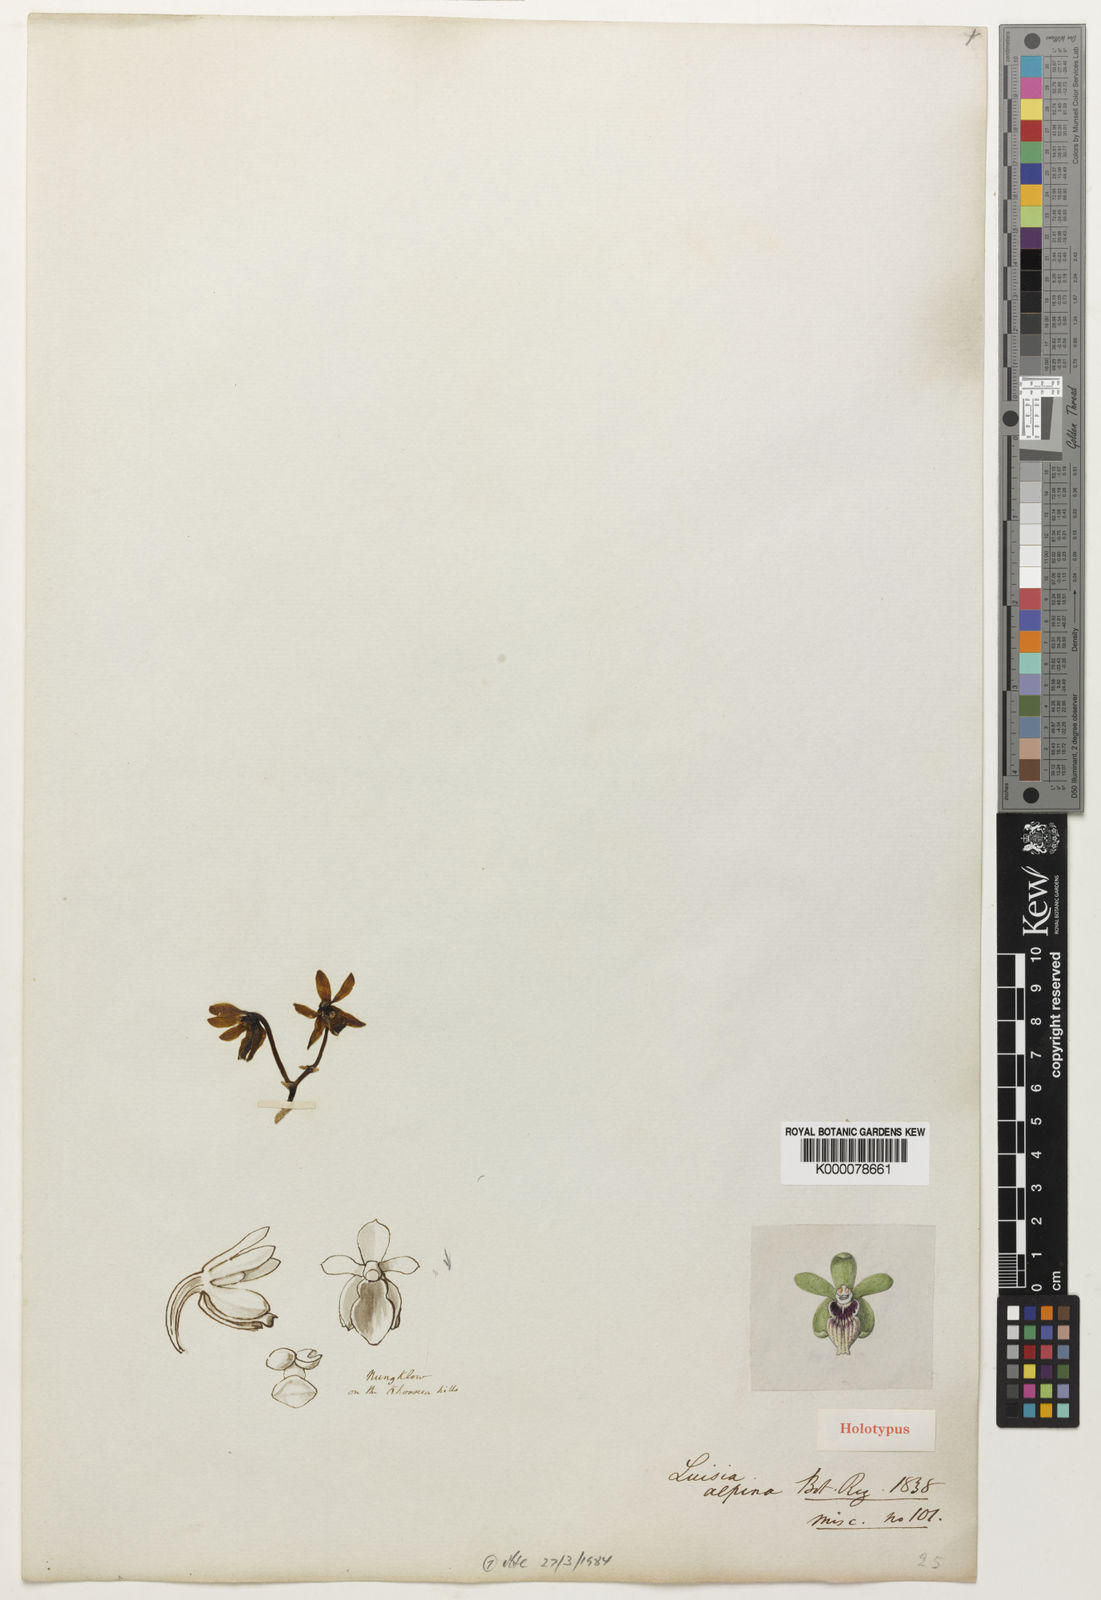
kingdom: Plantae
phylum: Tracheophyta
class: Liliopsida
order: Asparagales
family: Orchidaceae
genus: Vanda
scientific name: Vanda alpina
